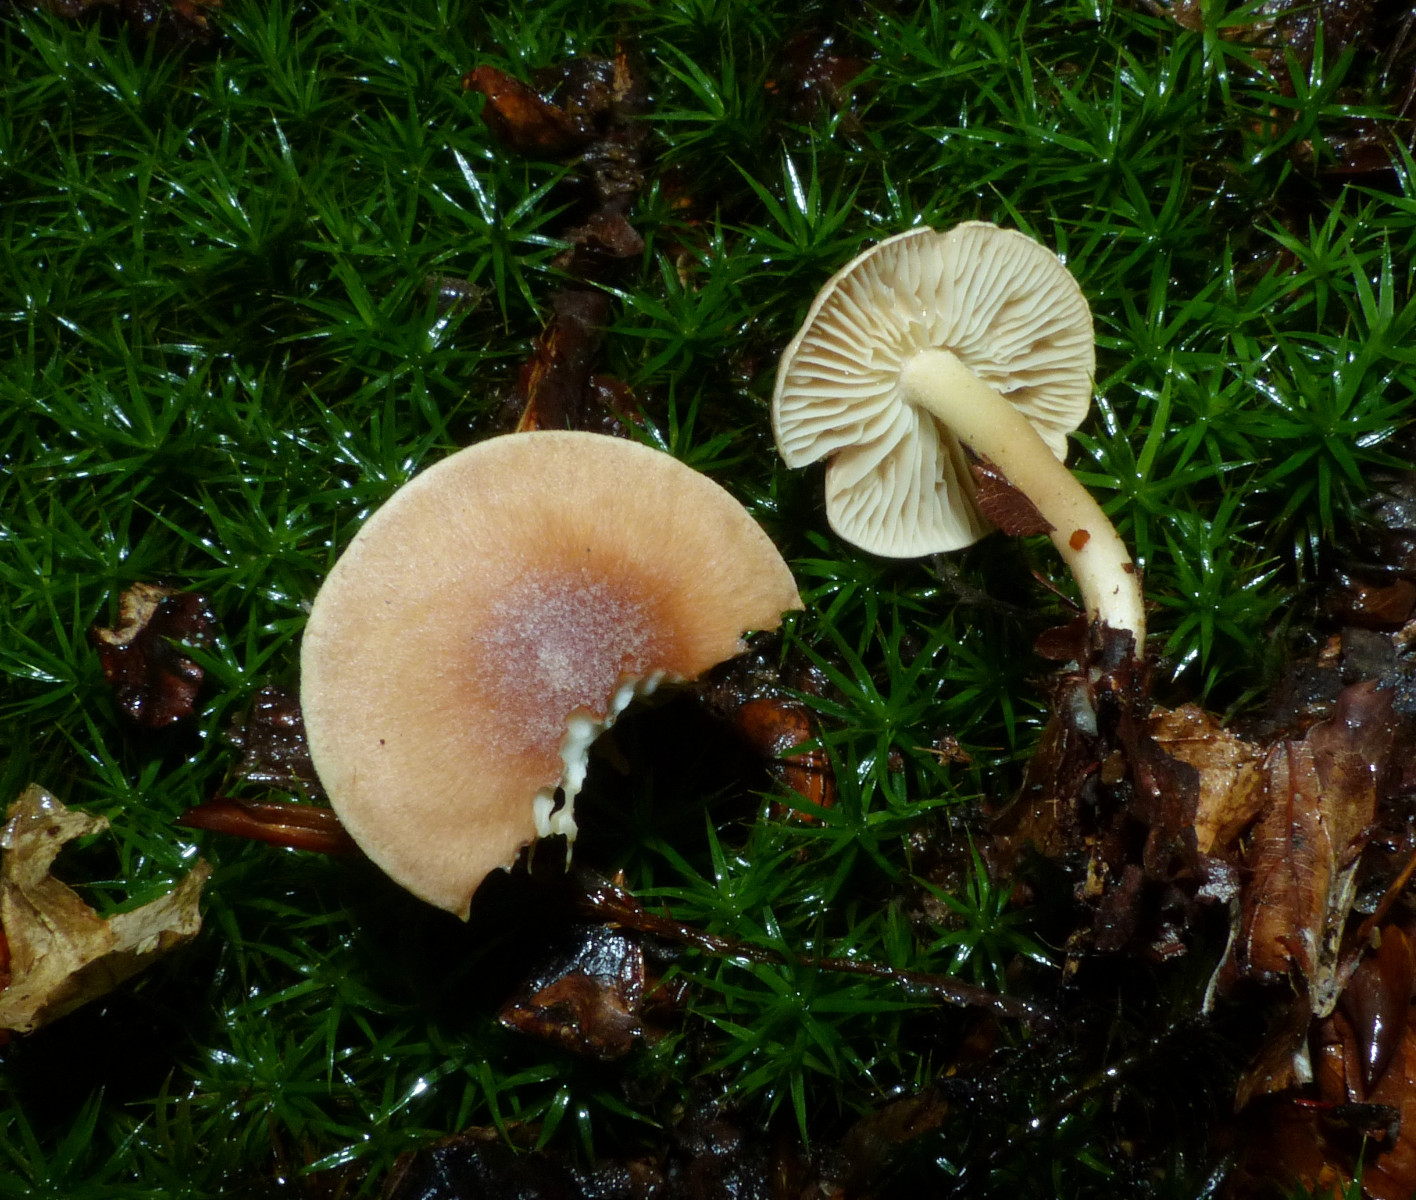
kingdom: Fungi
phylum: Basidiomycota
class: Agaricomycetes
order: Agaricales
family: Omphalotaceae
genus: Collybiopsis
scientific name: Collybiopsis peronata
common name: bestøvlet fladhat
